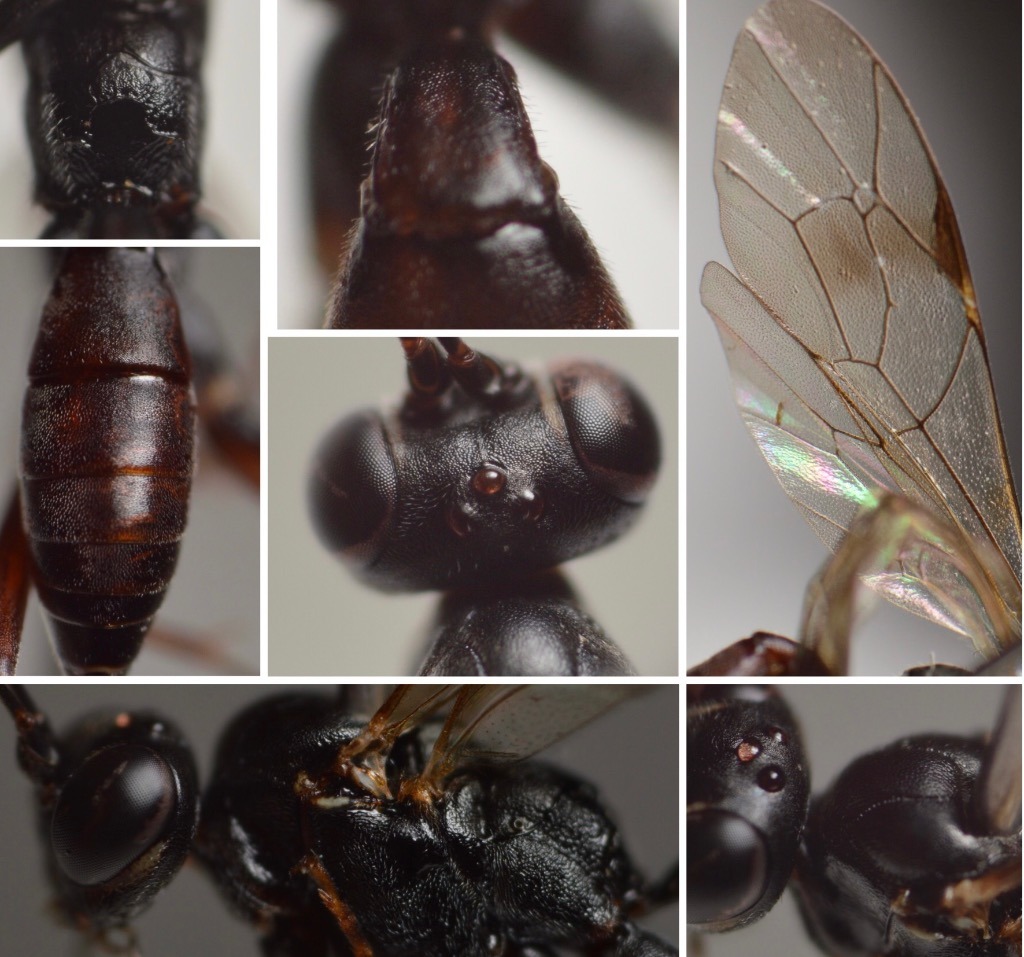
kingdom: Animalia
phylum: Arthropoda
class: Insecta
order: Hymenoptera
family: Ichneumonidae
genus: Enclisis
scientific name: Enclisis vindex
